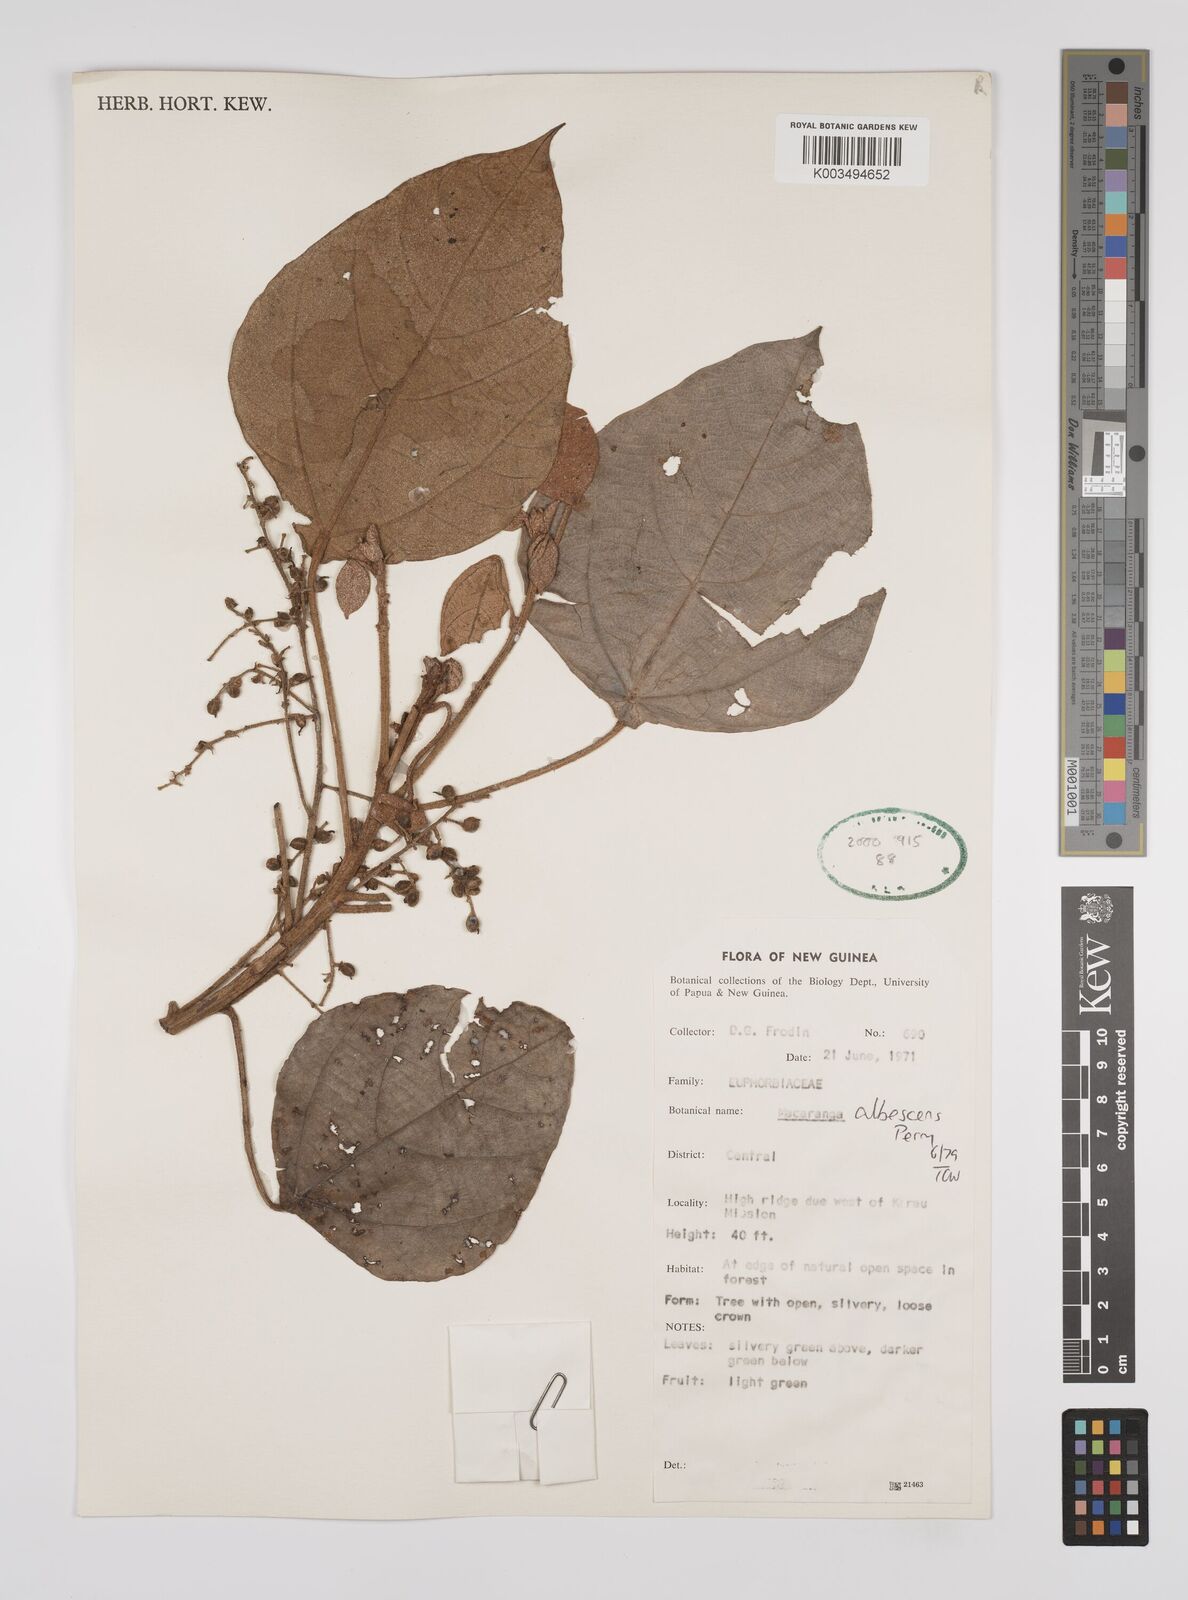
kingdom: Plantae
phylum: Tracheophyta
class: Magnoliopsida
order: Malpighiales
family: Euphorbiaceae
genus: Macaranga
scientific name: Macaranga albescens
